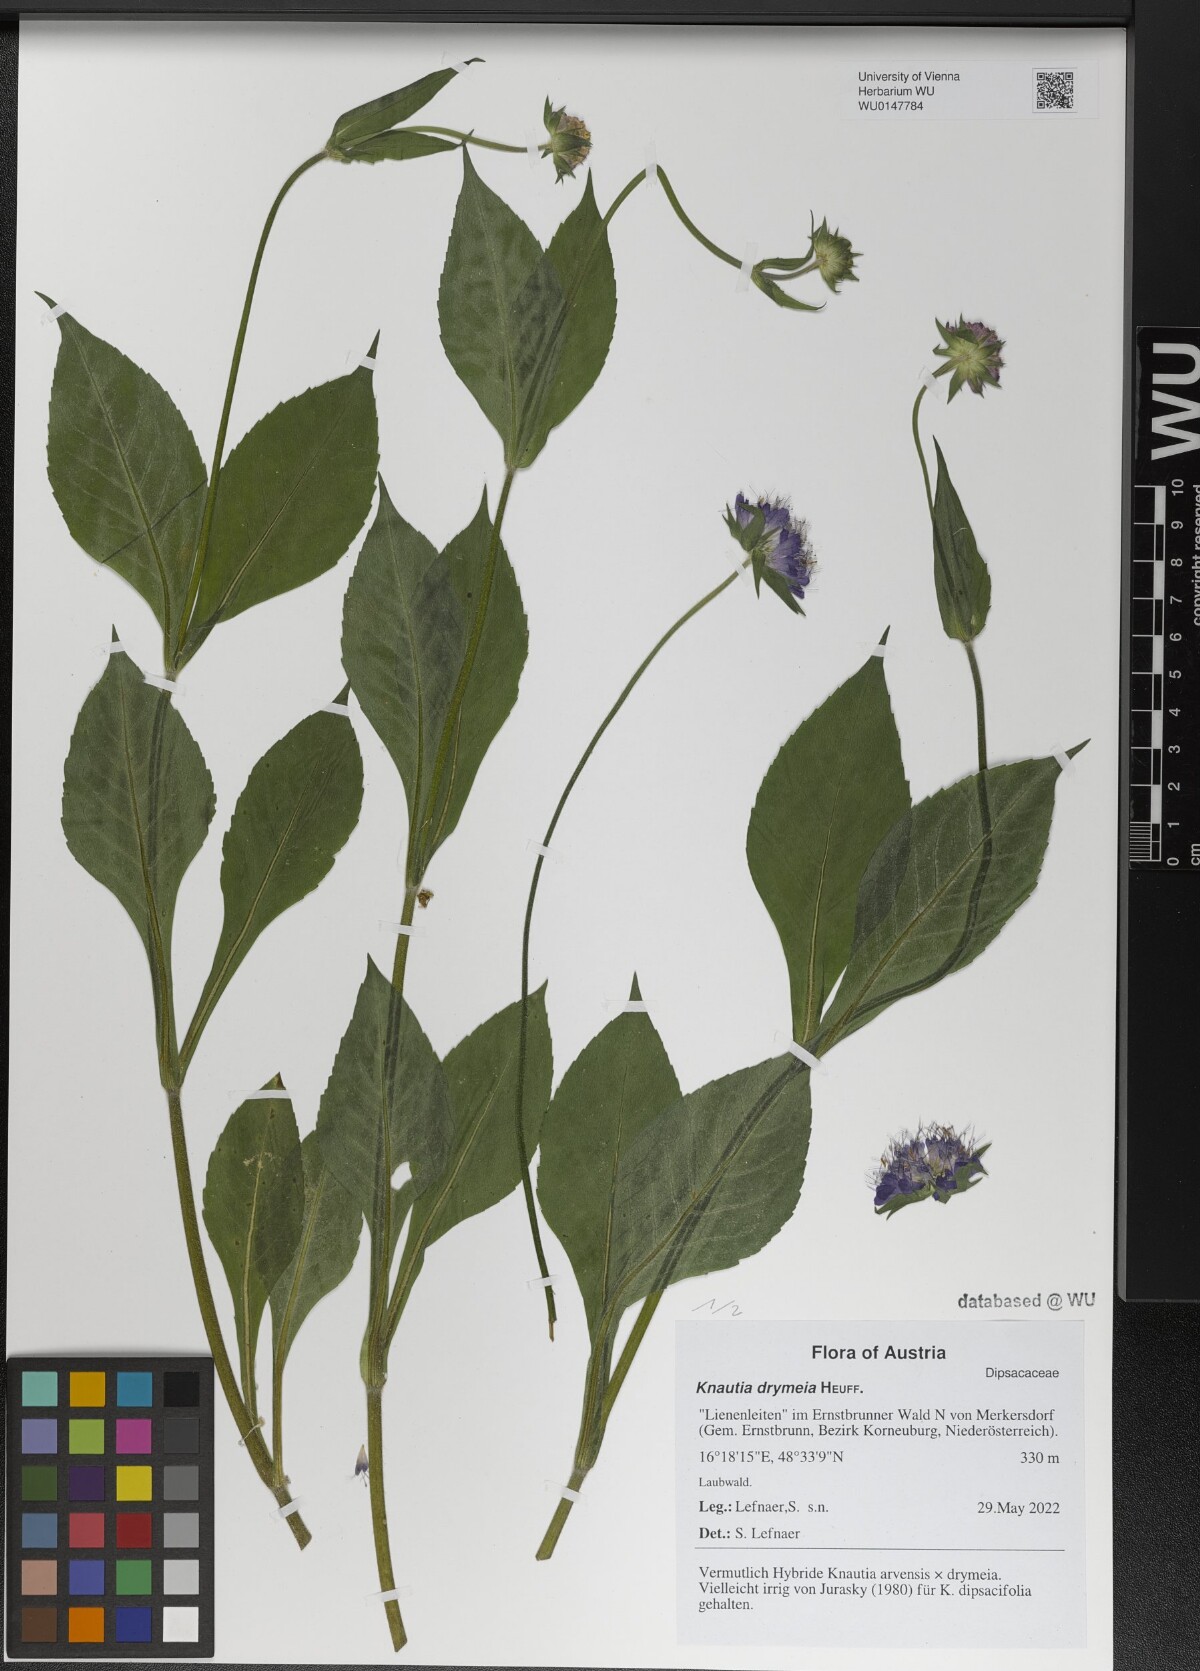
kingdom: Plantae
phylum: Tracheophyta
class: Magnoliopsida
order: Dipsacales
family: Caprifoliaceae
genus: Knautia
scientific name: Knautia drymeia
